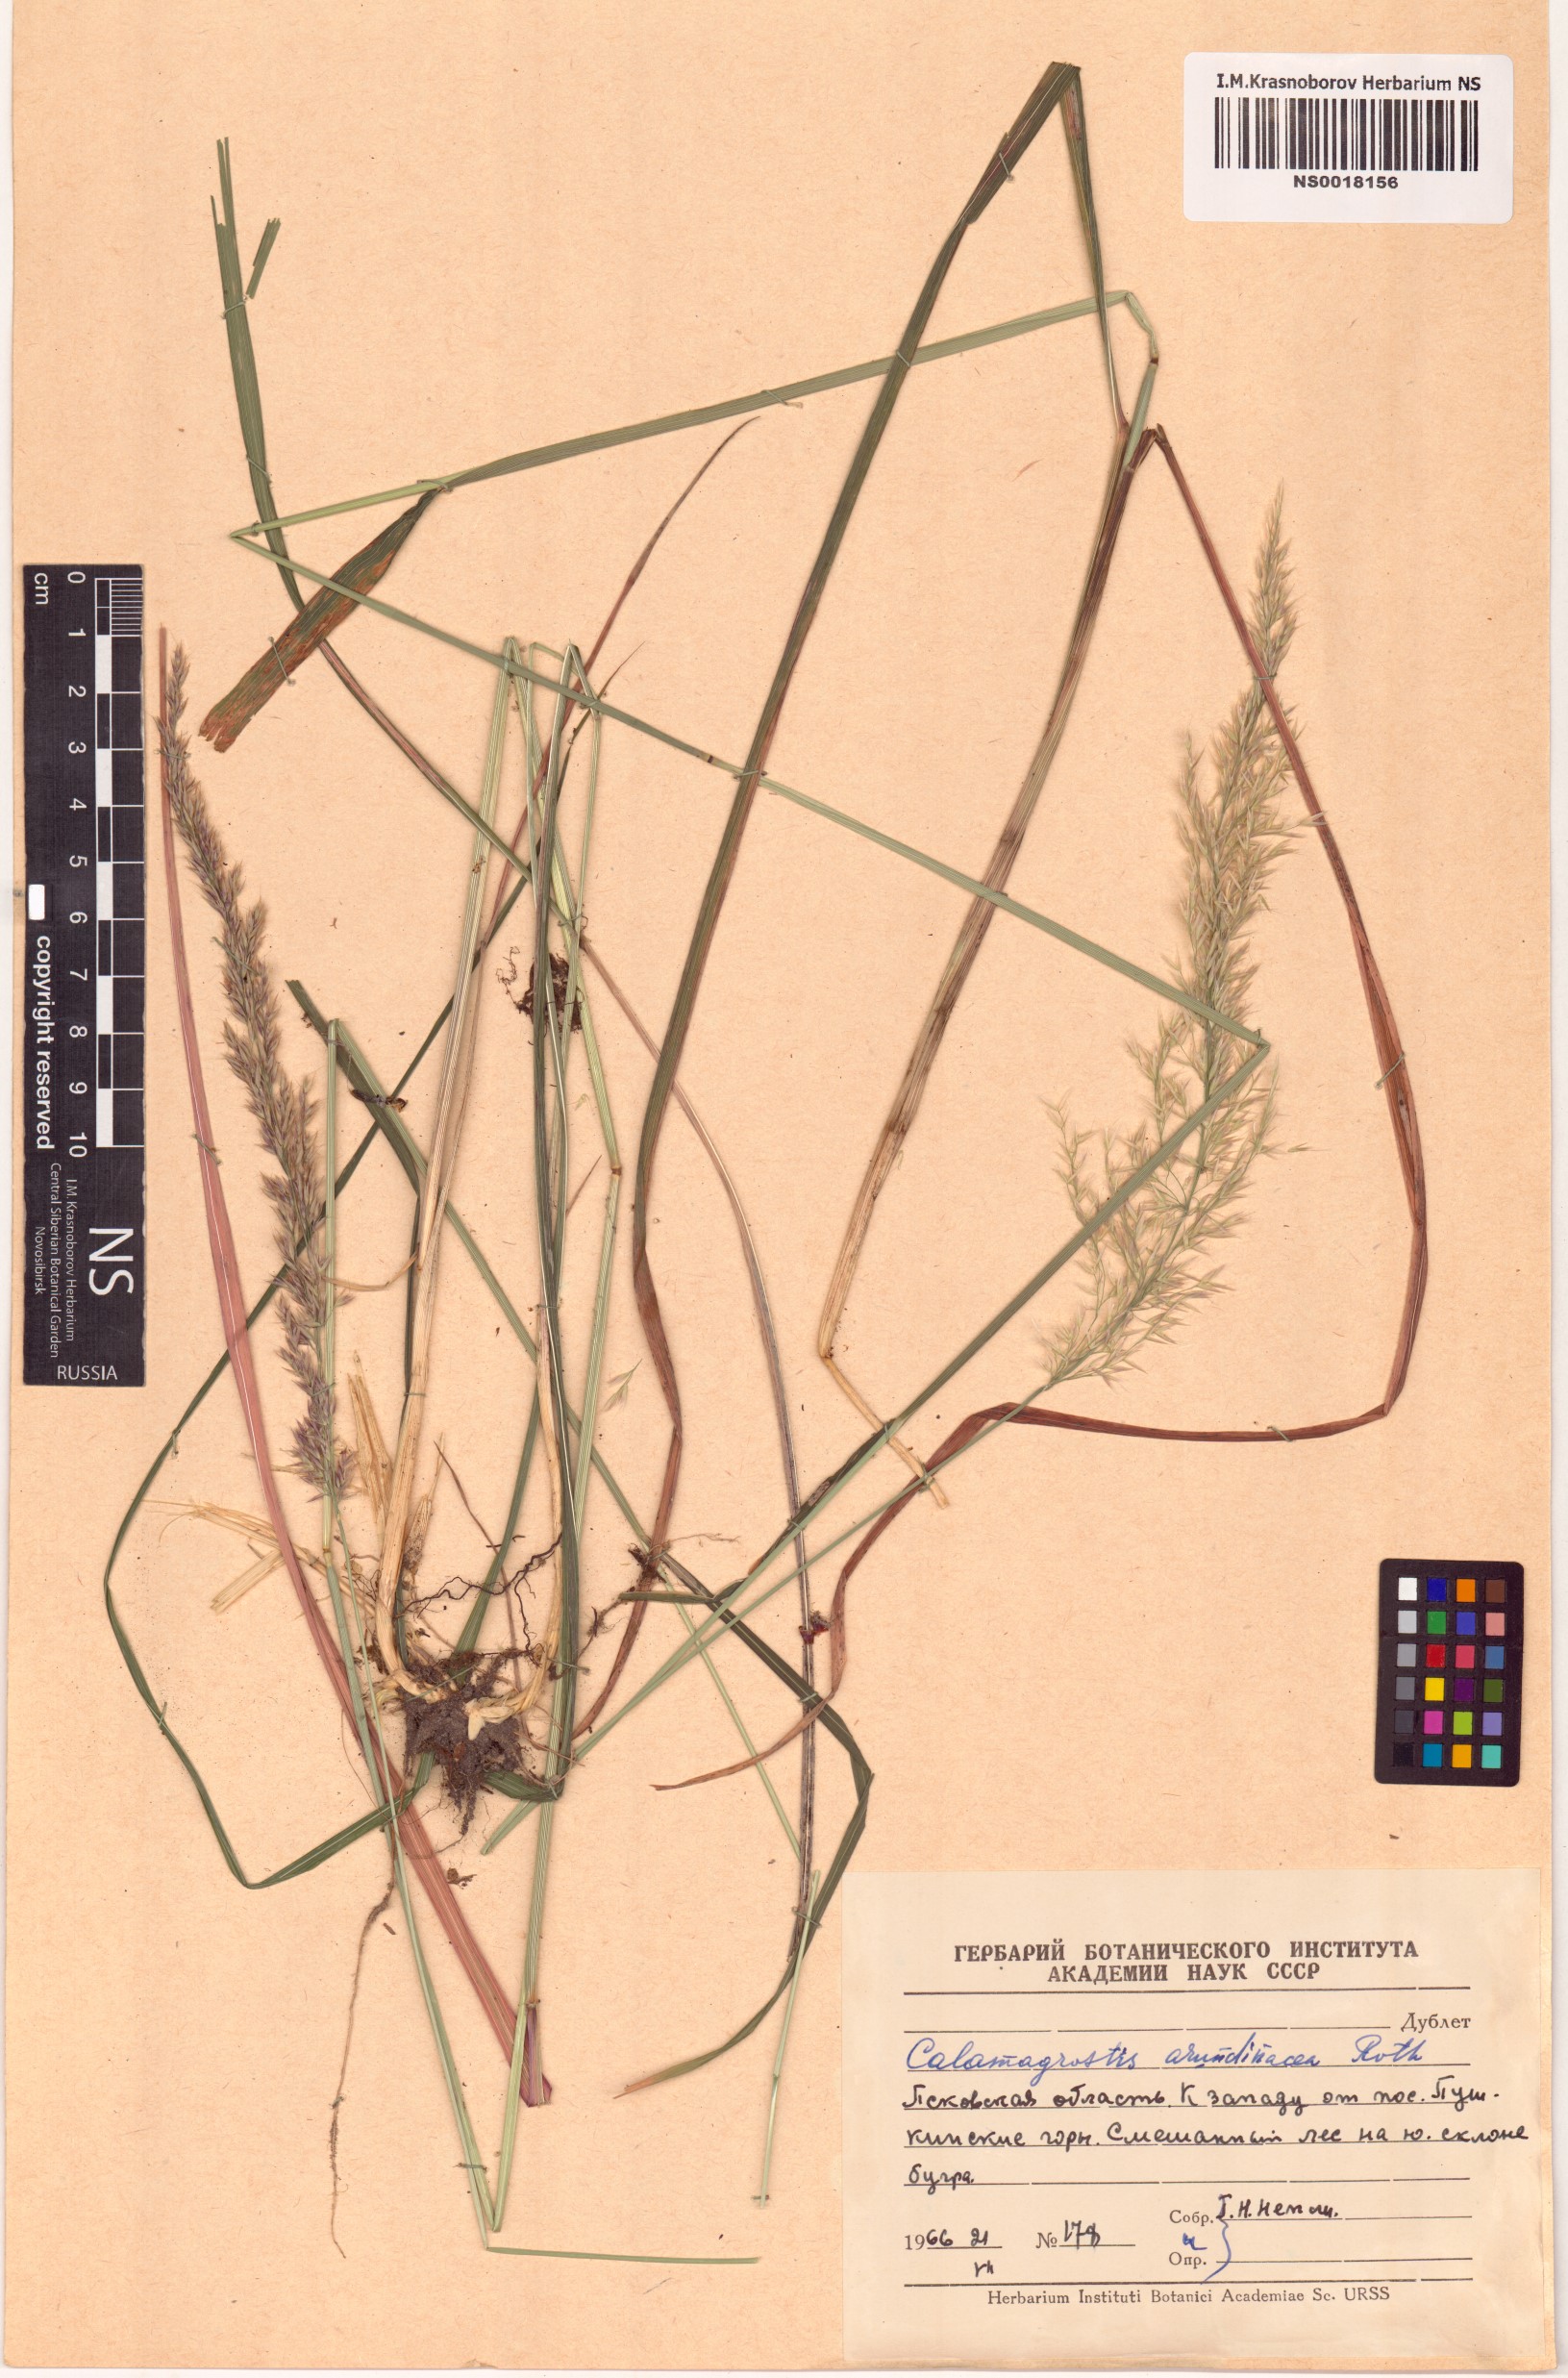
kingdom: Plantae
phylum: Tracheophyta
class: Liliopsida
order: Poales
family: Poaceae
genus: Calamagrostis
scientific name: Calamagrostis arundinacea
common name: Metskastik
